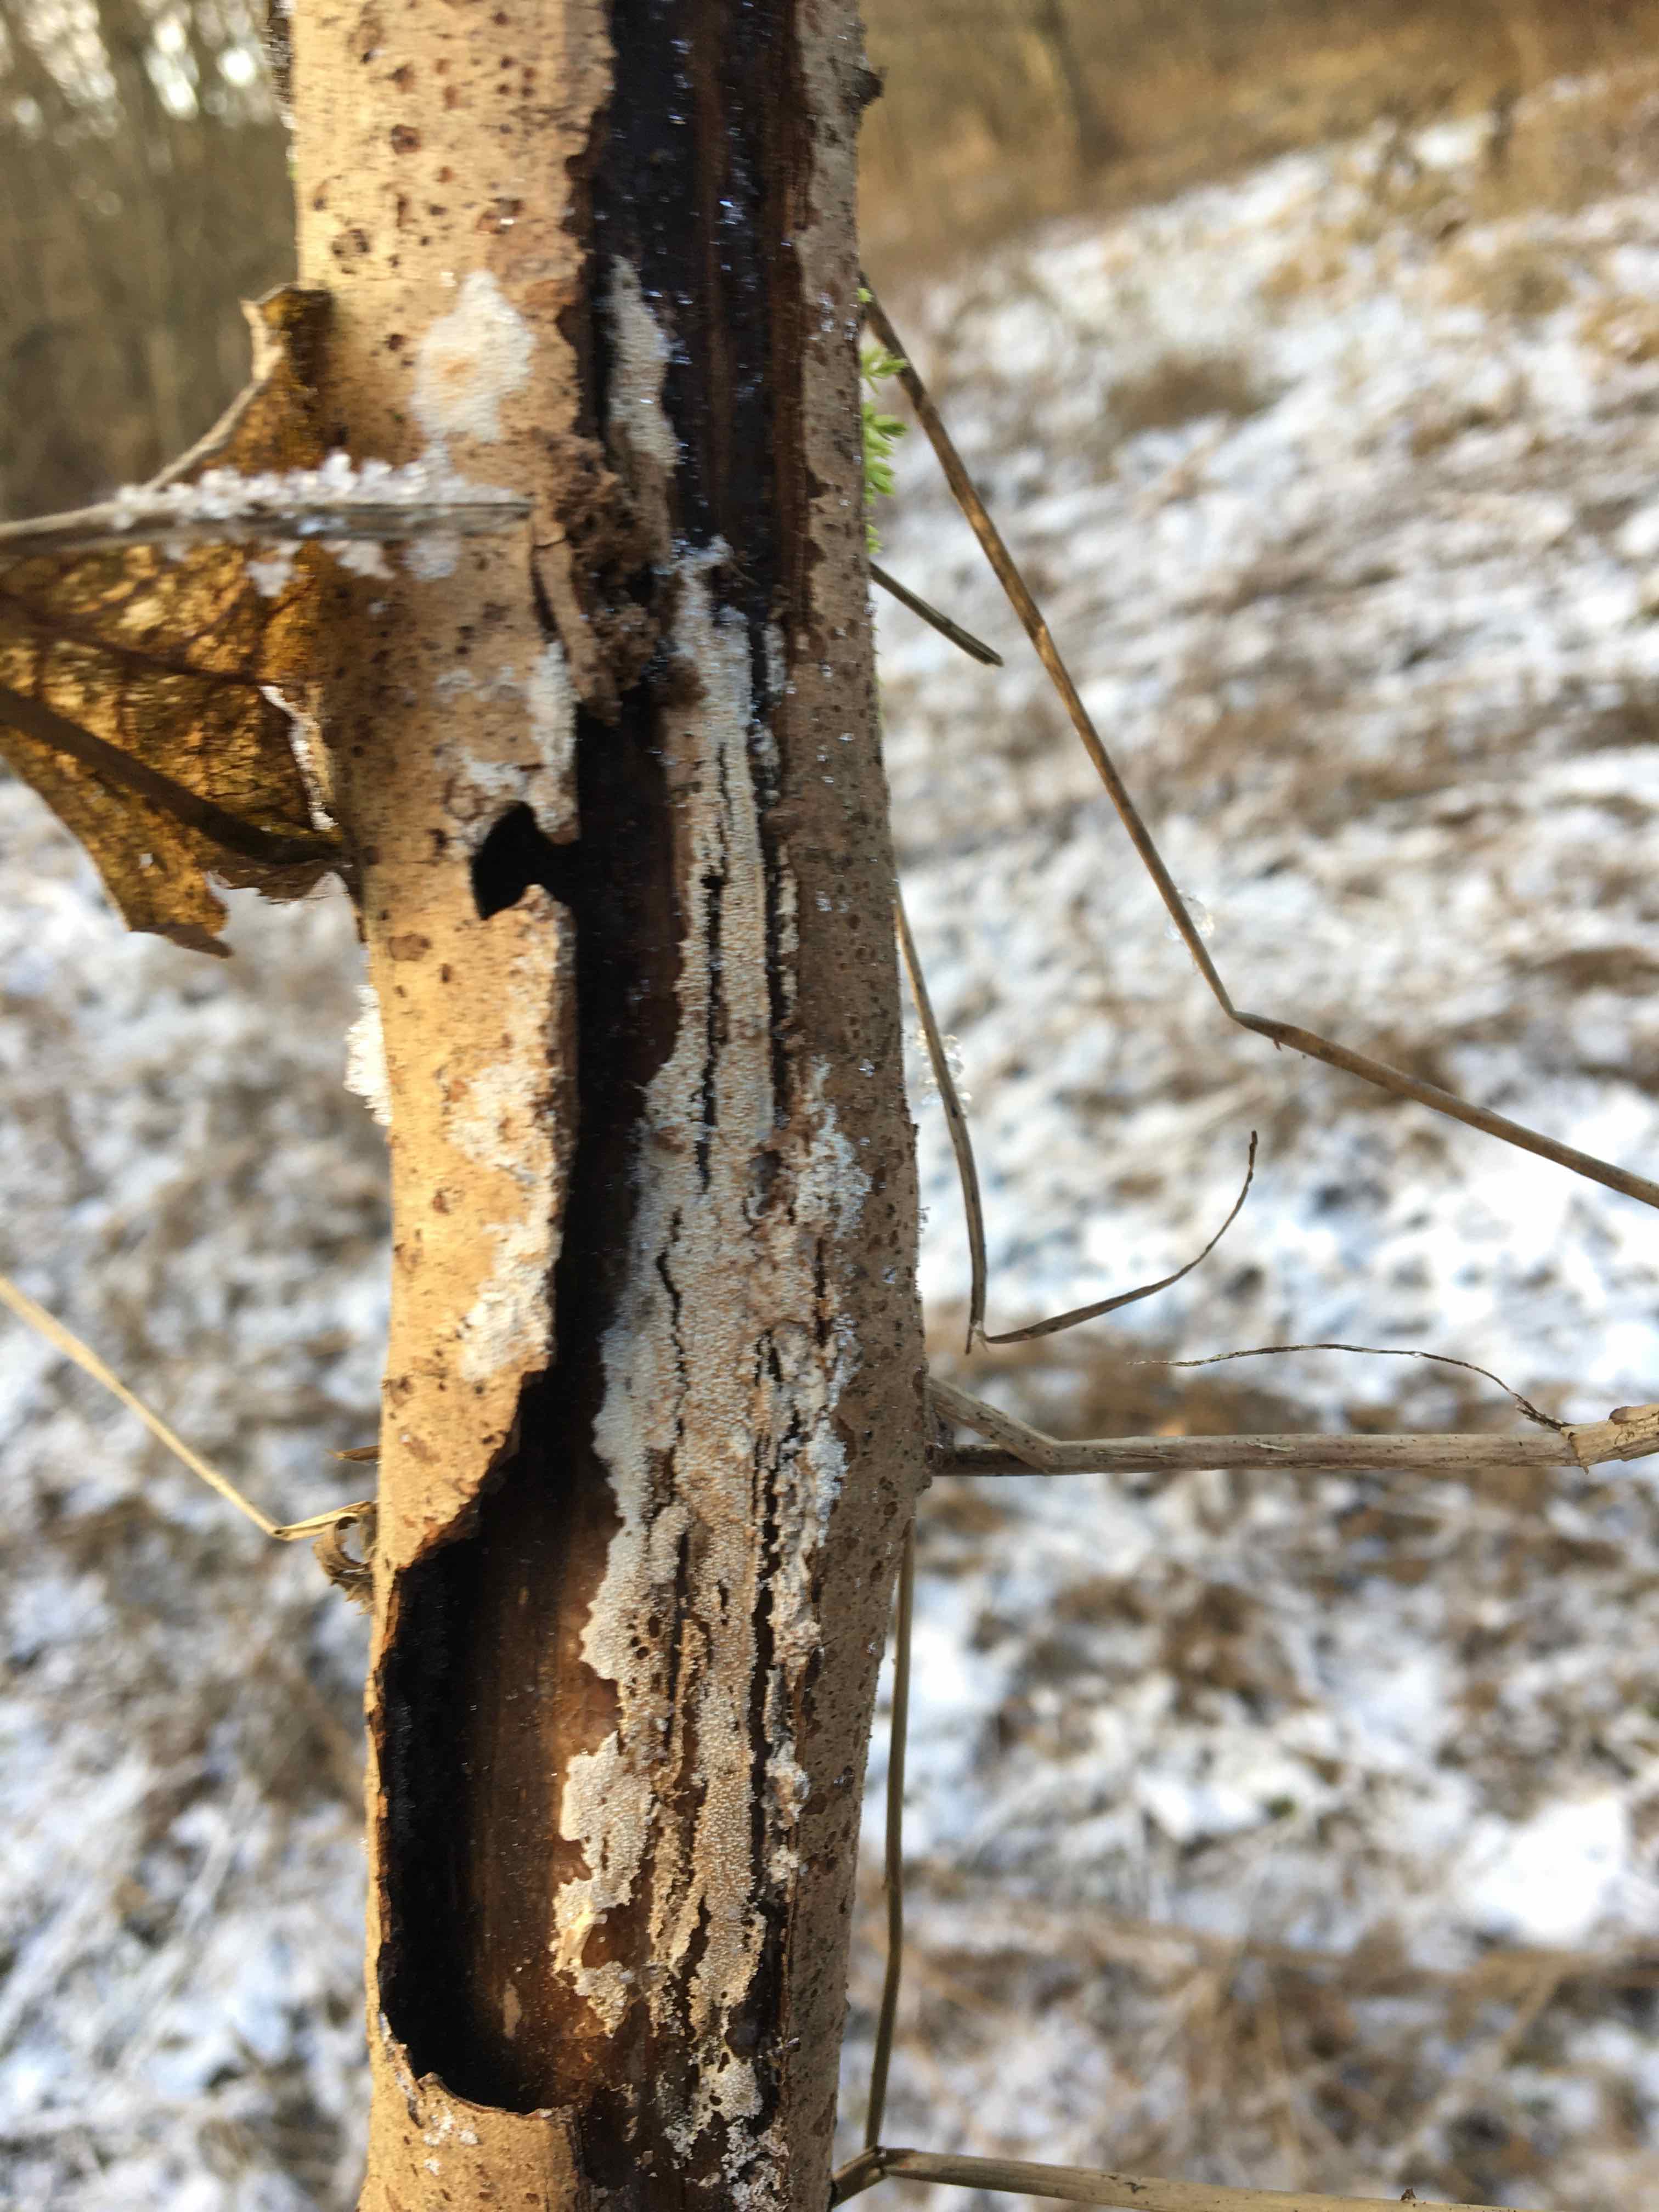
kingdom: Fungi
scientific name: Fungi
